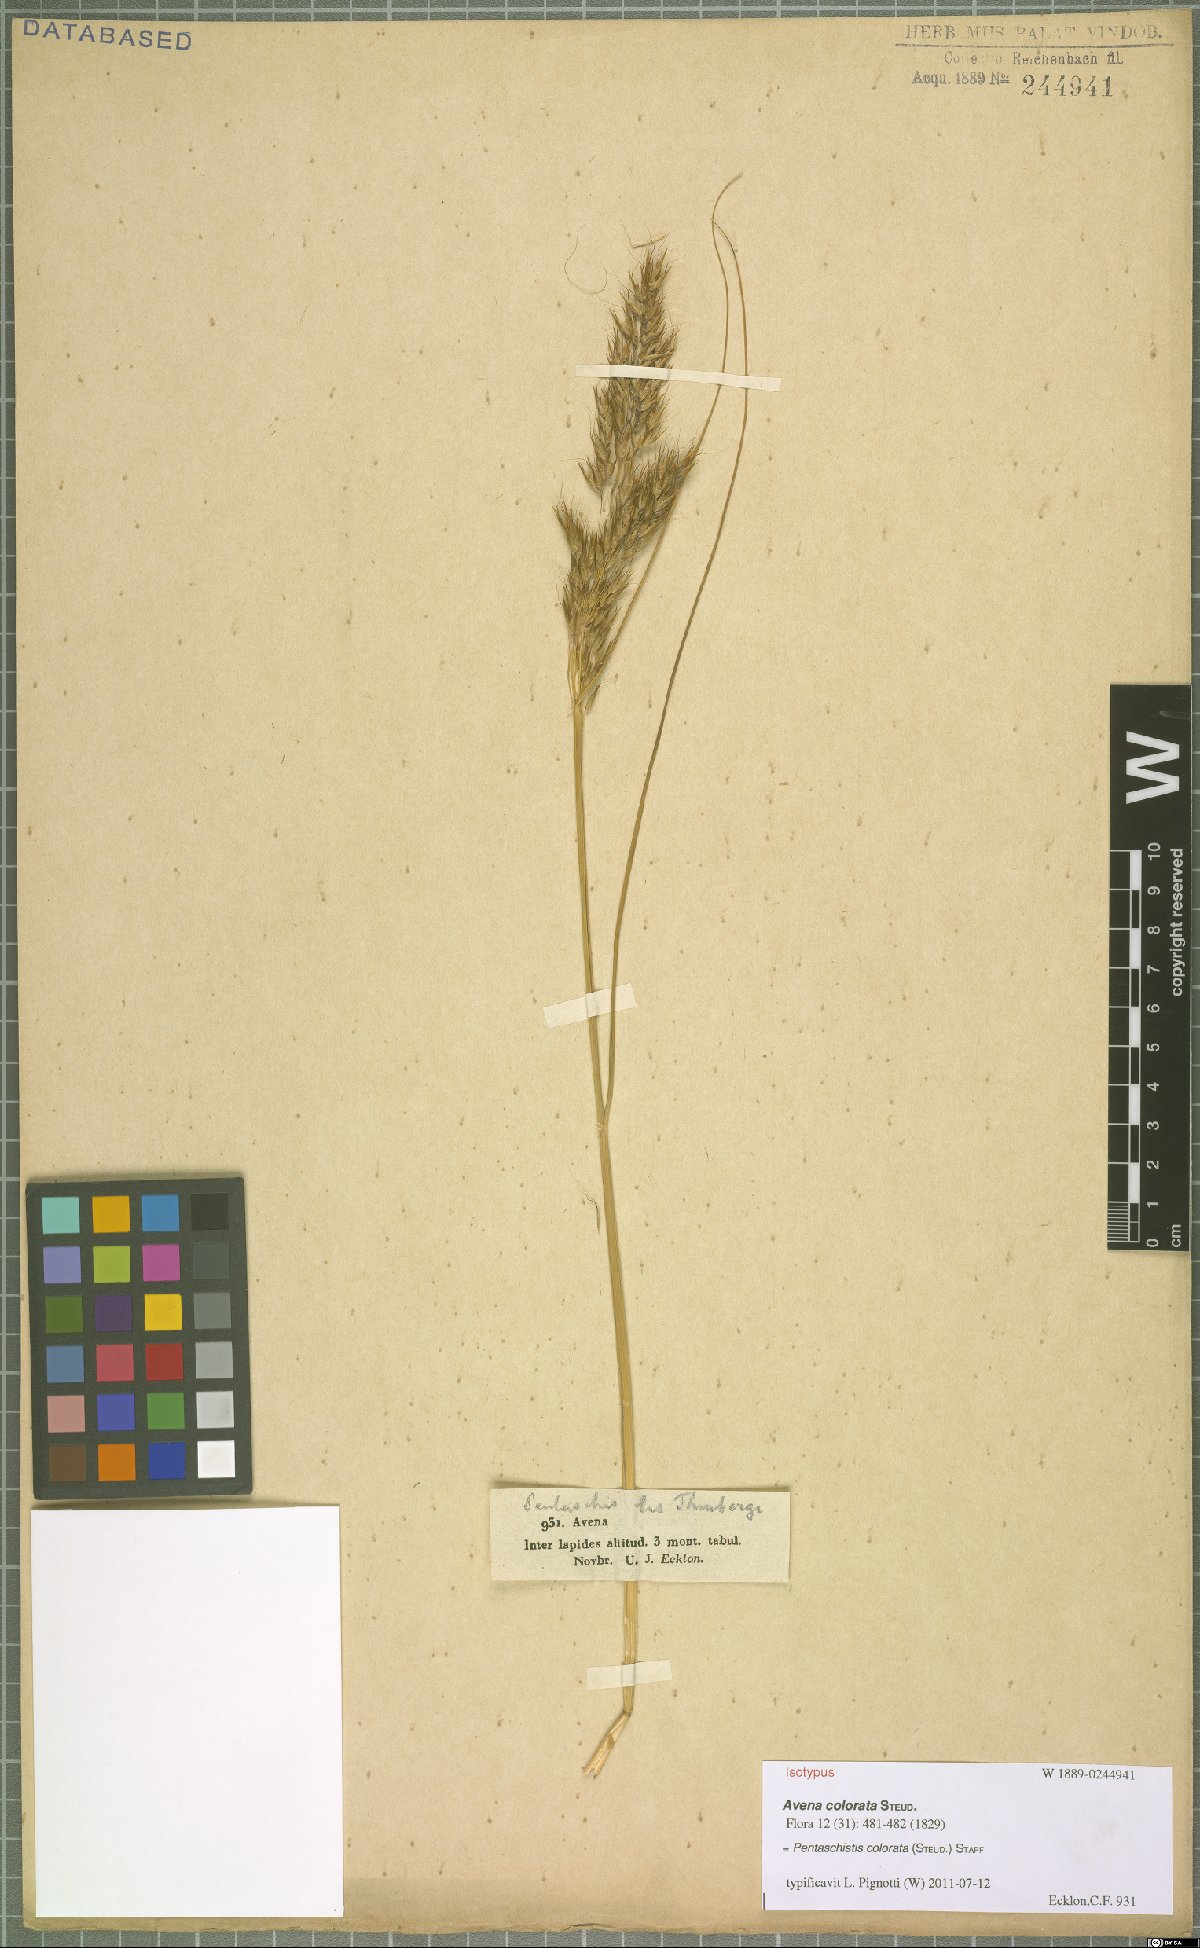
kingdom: Plantae
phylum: Tracheophyta
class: Liliopsida
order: Poales
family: Poaceae
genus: Pentameris
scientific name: Pentameris colorata
